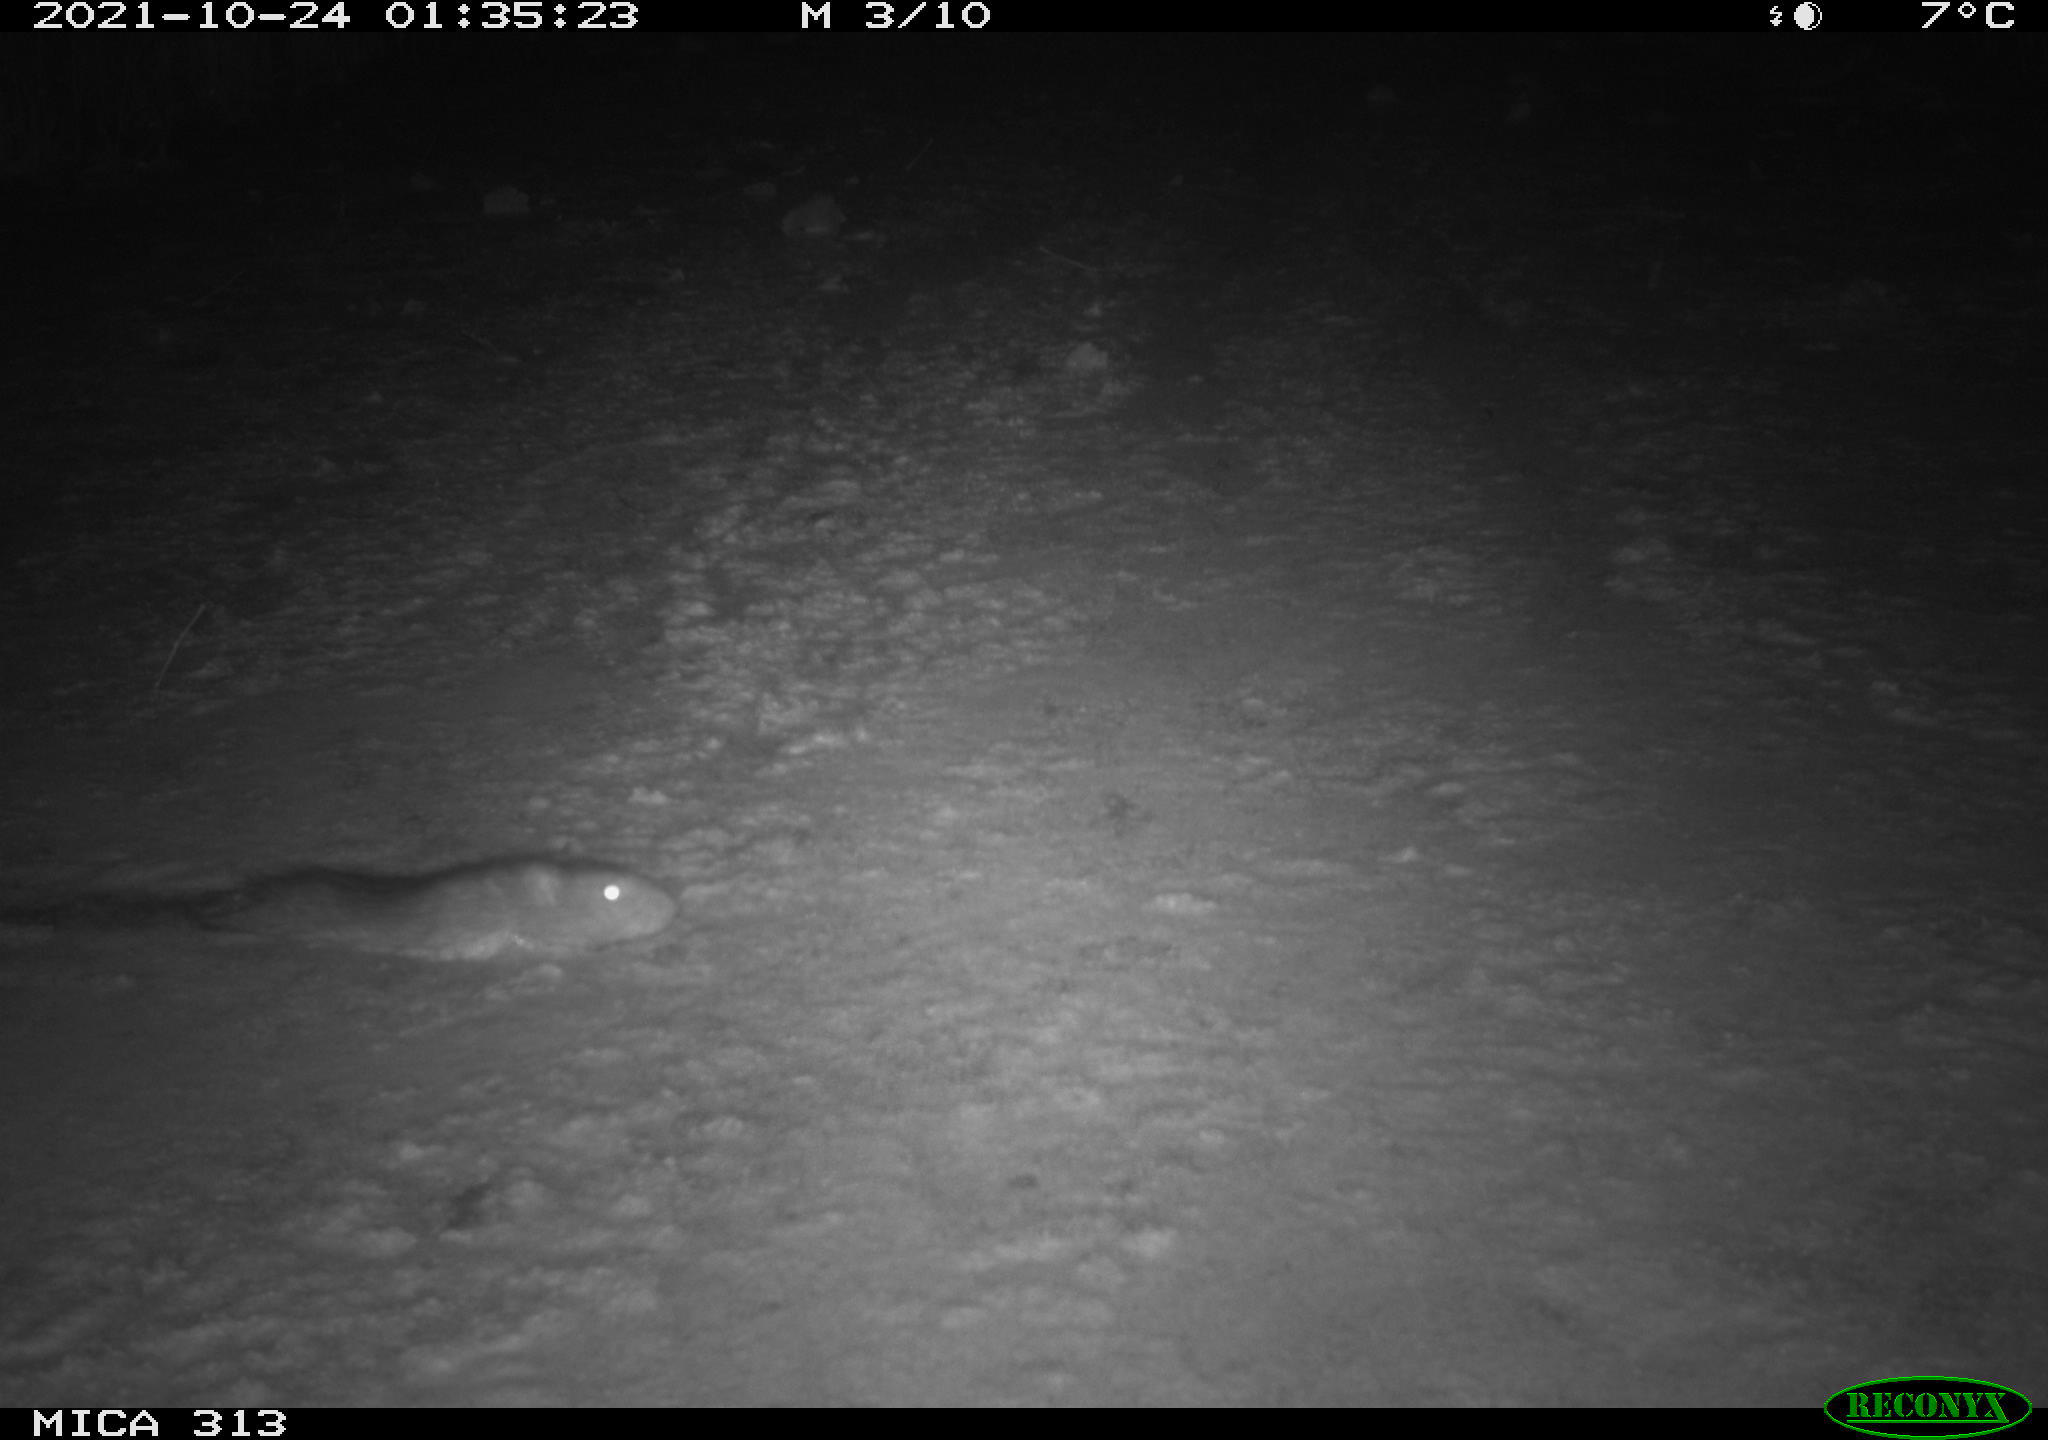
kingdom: Animalia
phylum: Chordata
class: Mammalia
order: Rodentia
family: Muridae
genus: Rattus
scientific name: Rattus norvegicus
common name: Brown rat
